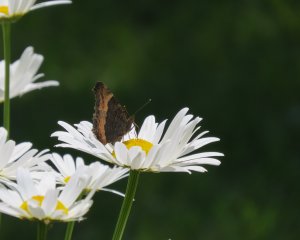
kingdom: Animalia
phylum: Arthropoda
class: Insecta
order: Lepidoptera
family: Nymphalidae
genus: Aglais
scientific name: Aglais milberti
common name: Milbert's Tortoiseshell
